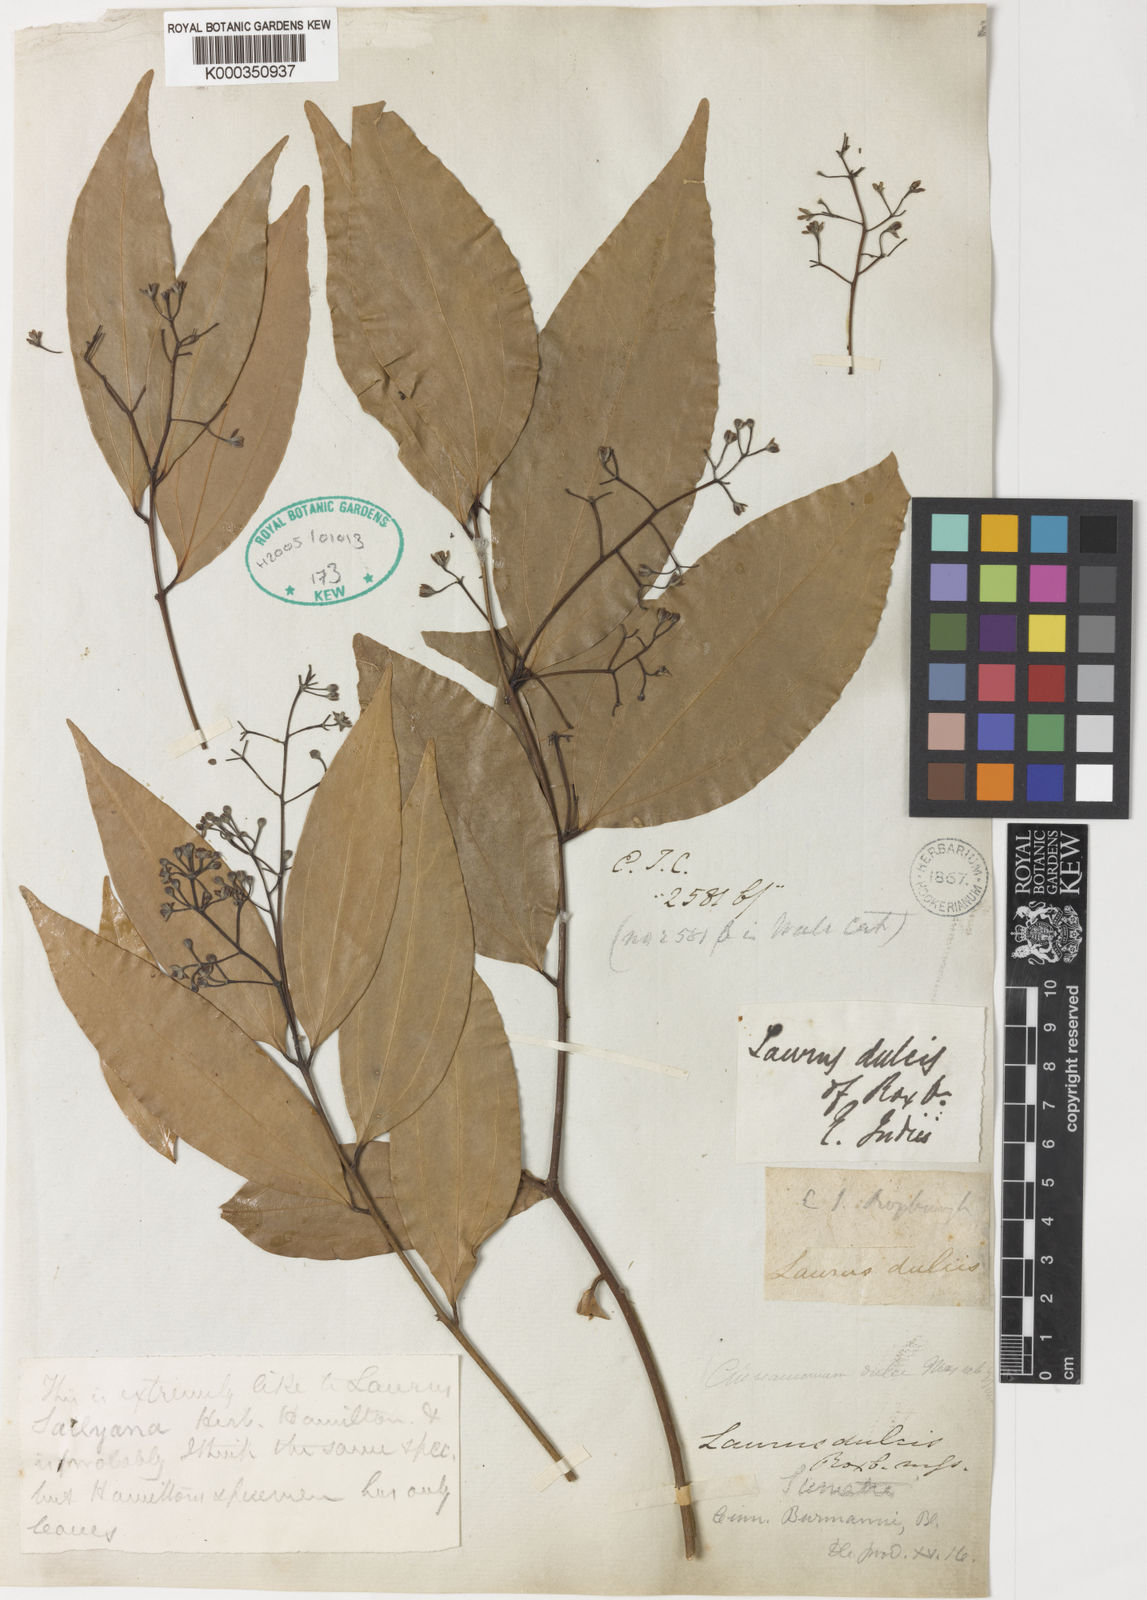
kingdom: Plantae
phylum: Tracheophyta
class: Magnoliopsida
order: Laurales
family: Lauraceae
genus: Cinnamomum
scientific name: Cinnamomum burmanni
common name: Padang cassia
